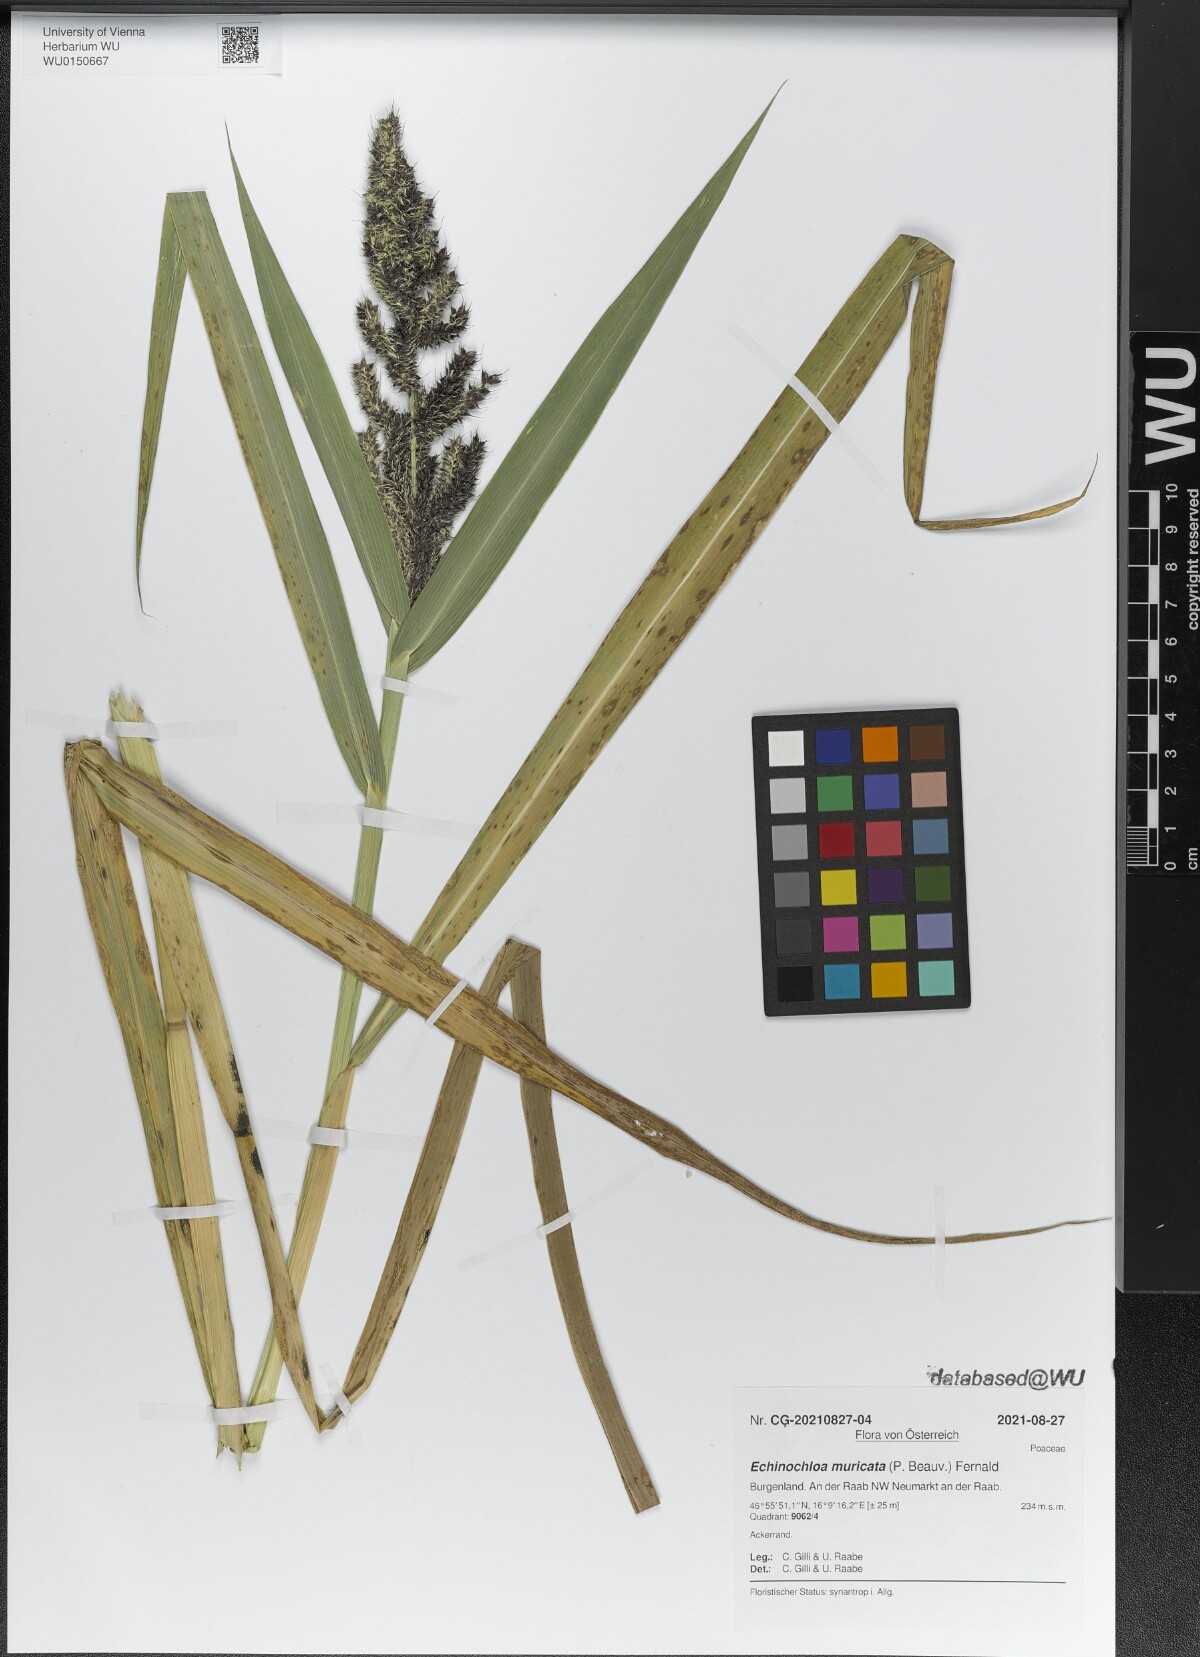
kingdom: Plantae
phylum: Tracheophyta
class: Liliopsida
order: Poales
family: Poaceae
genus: Echinochloa
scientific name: Echinochloa muricata
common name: American barnyard grass
